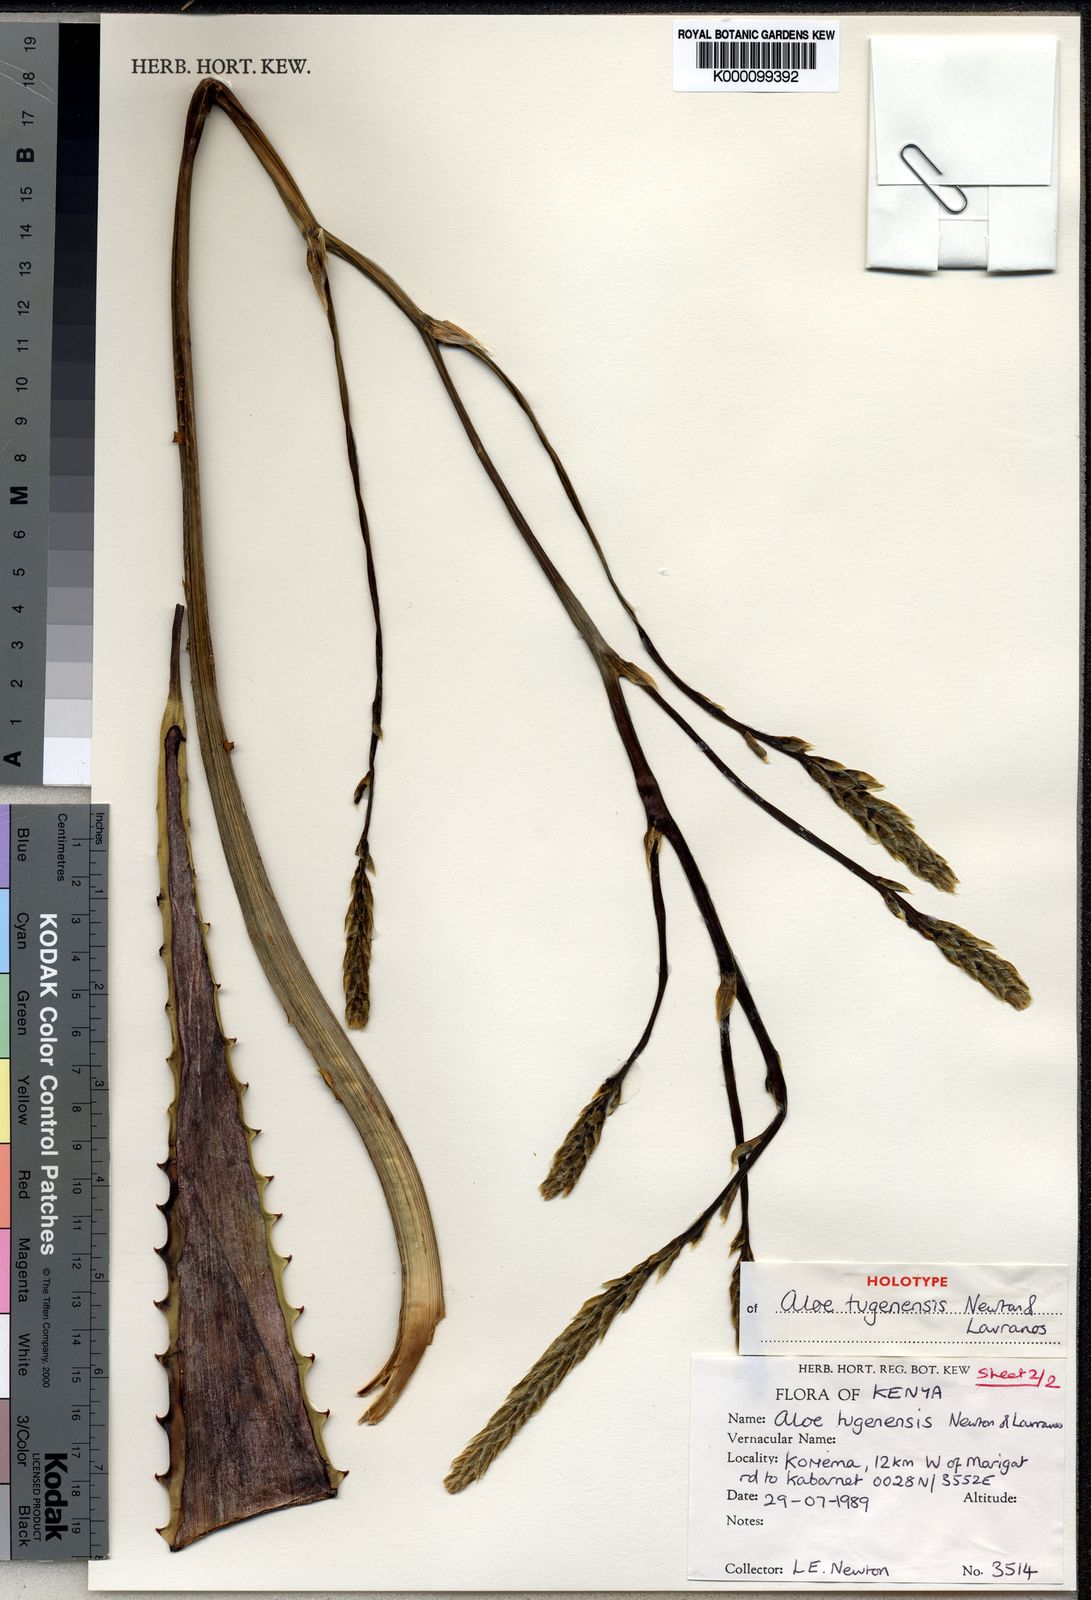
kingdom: Plantae
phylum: Tracheophyta
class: Liliopsida
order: Asparagales
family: Asphodelaceae
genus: Aloe
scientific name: Aloe archeri
